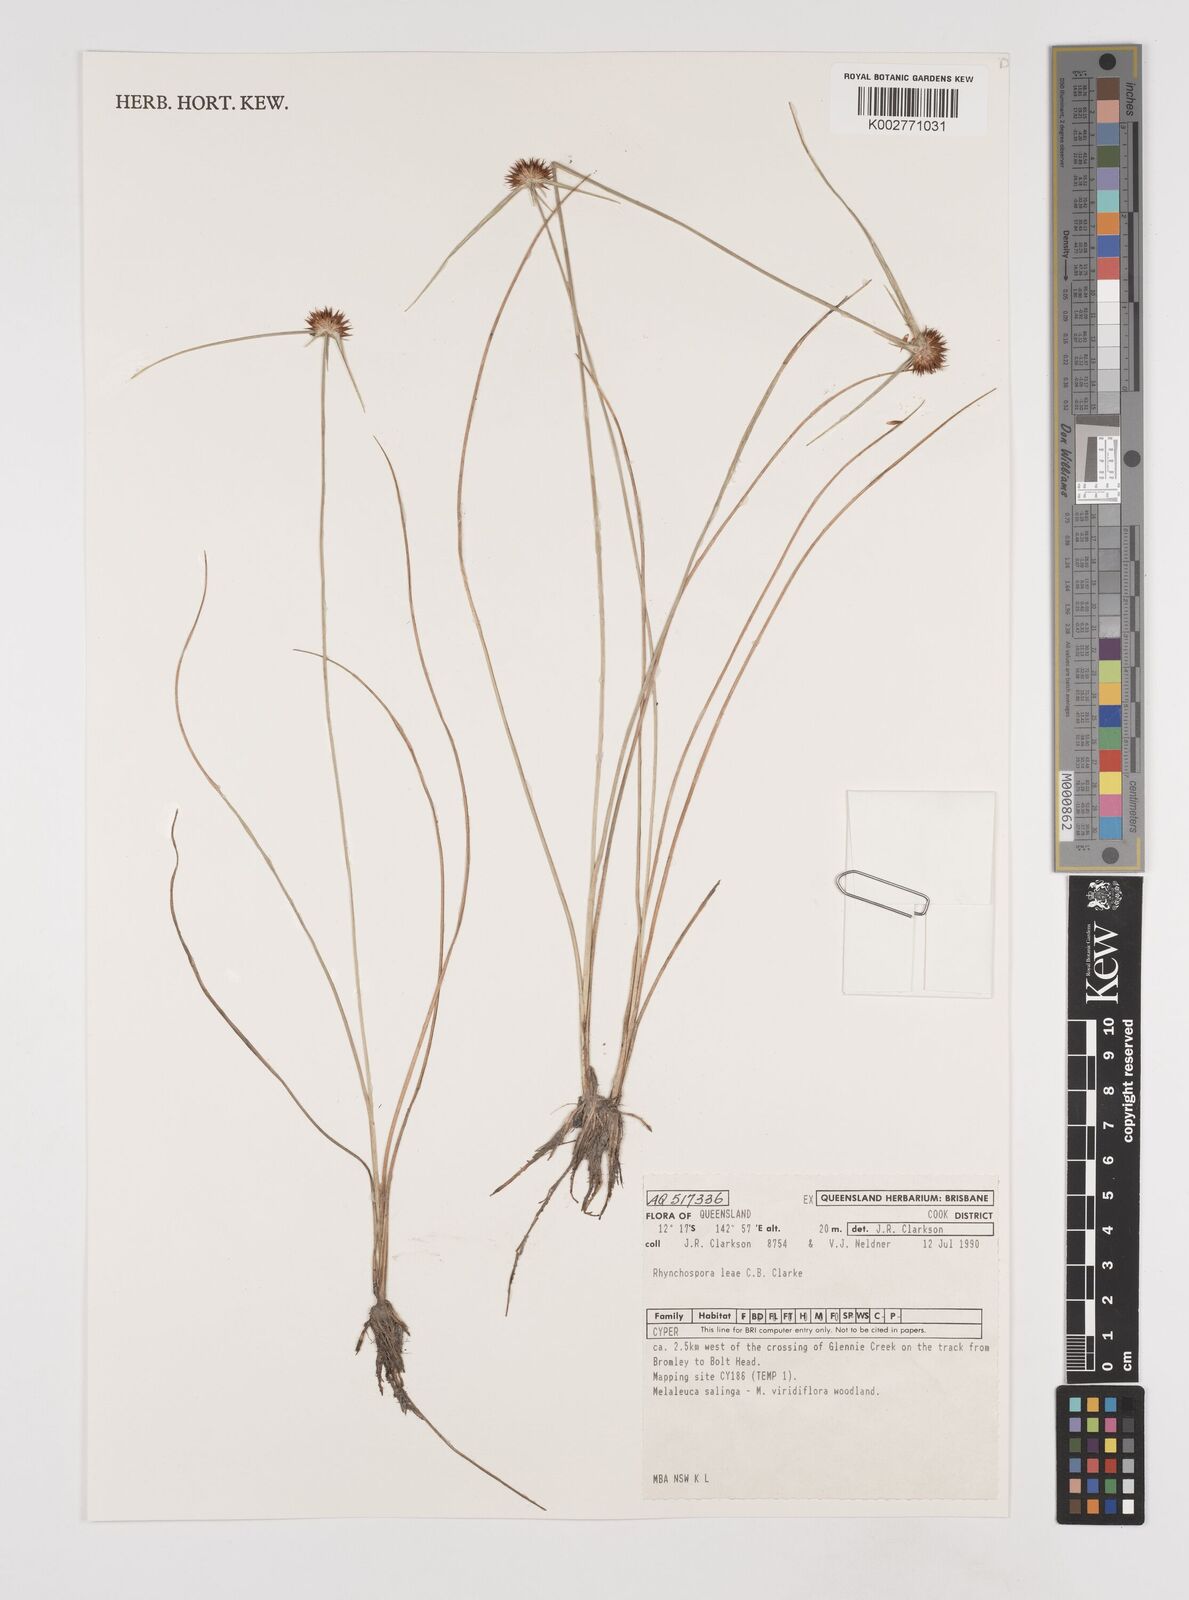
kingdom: Plantae
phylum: Tracheophyta
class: Liliopsida
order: Poales
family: Cyperaceae
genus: Rhynchospora
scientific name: Rhynchospora leae
